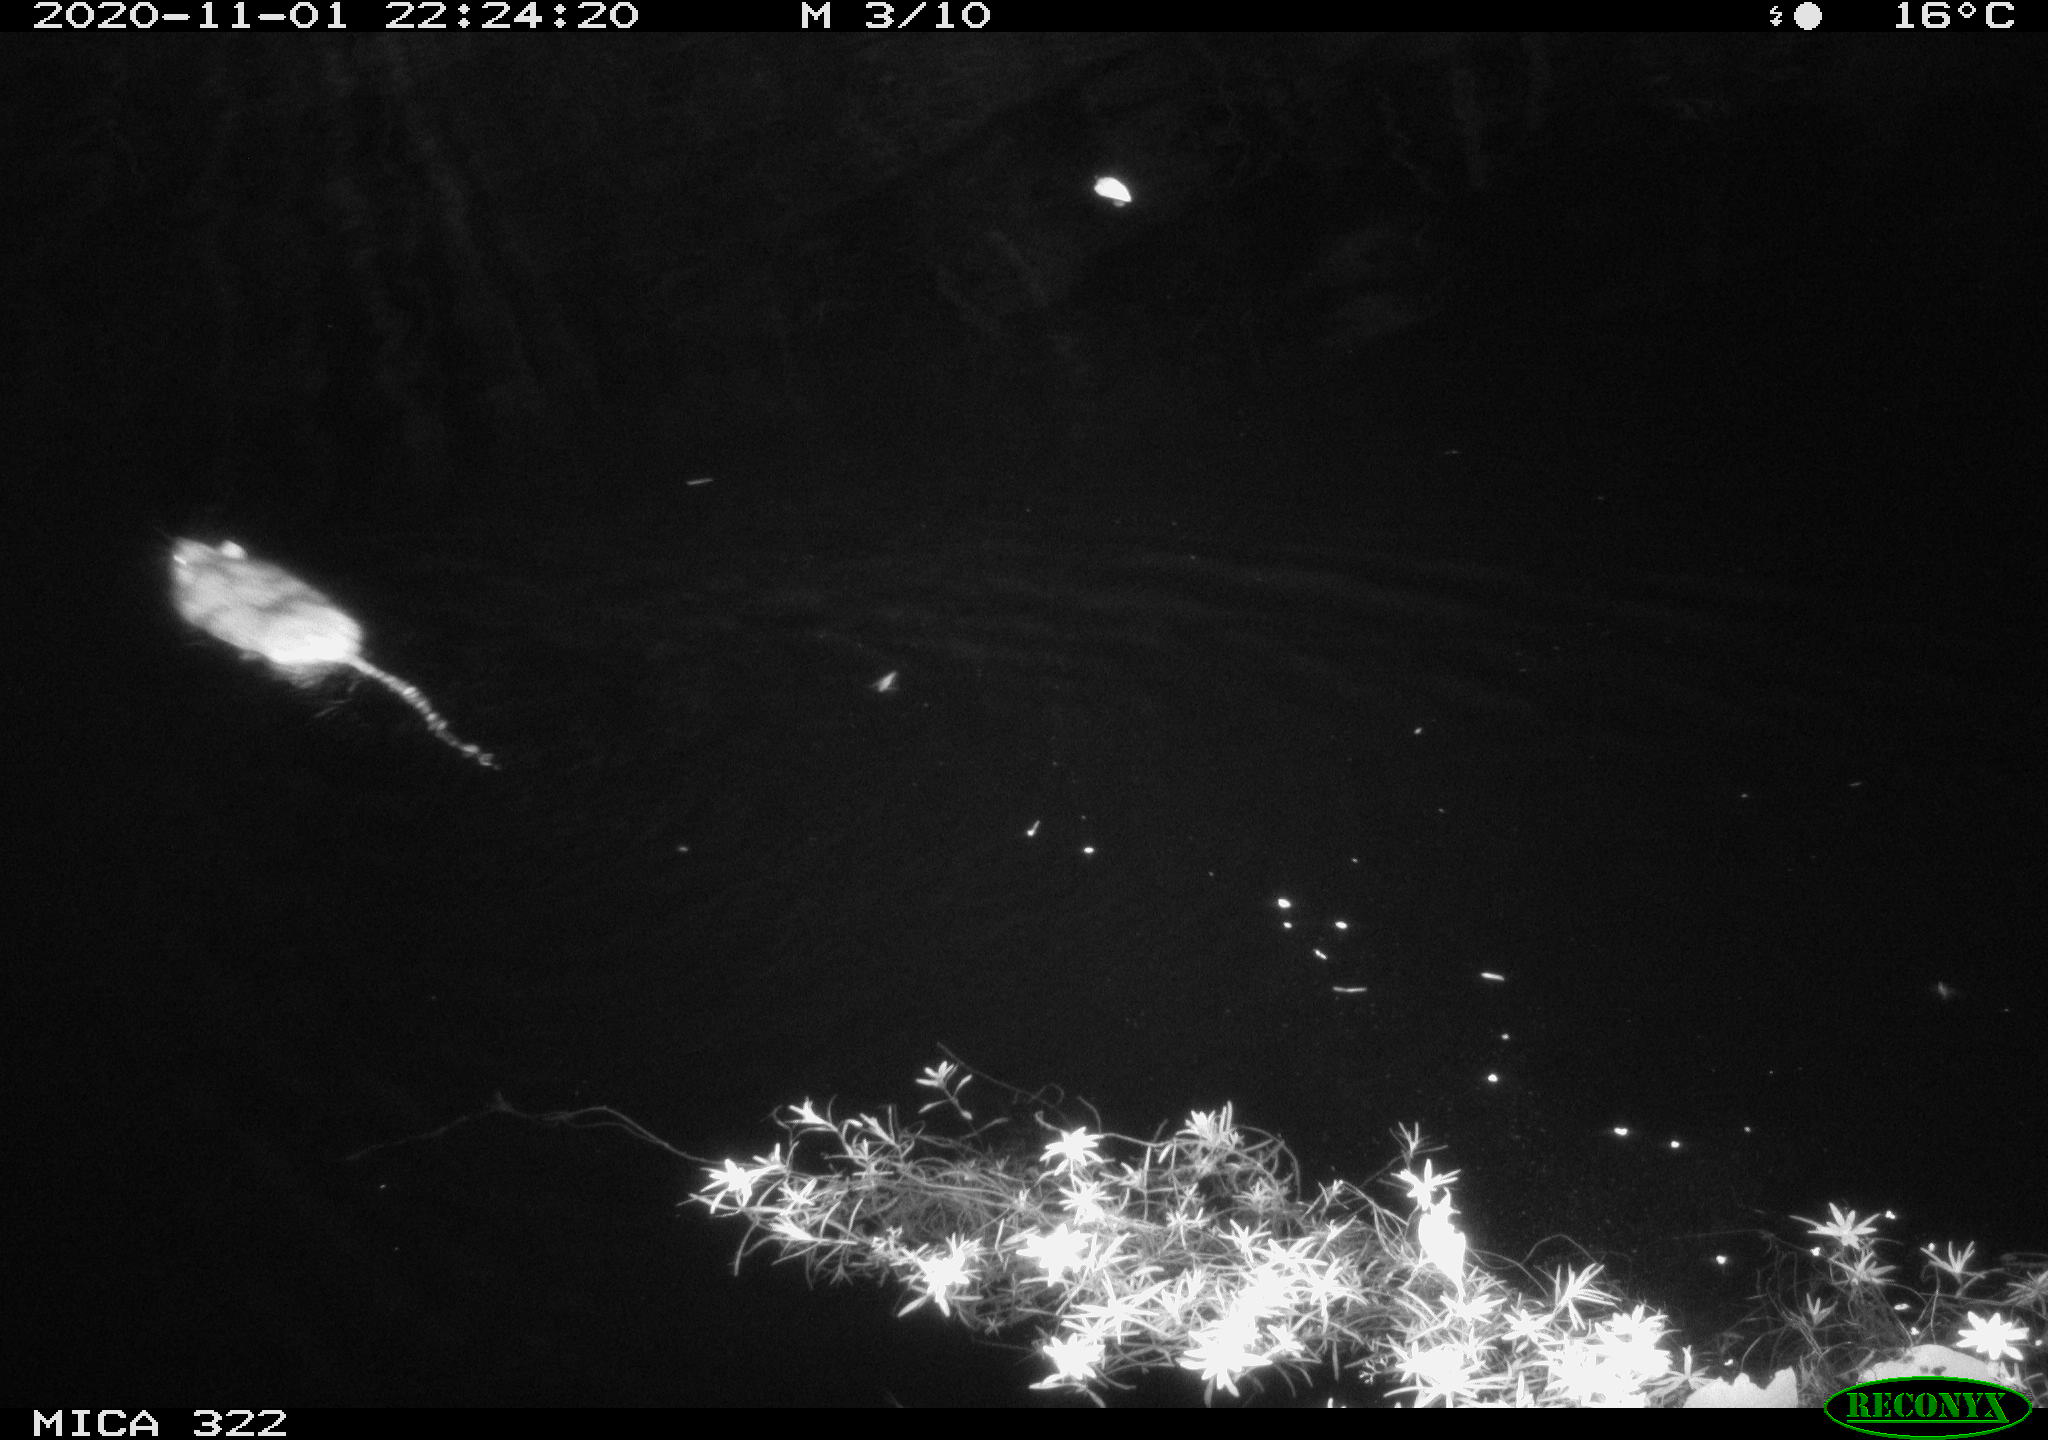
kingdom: Animalia
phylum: Chordata
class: Mammalia
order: Rodentia
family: Muridae
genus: Rattus
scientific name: Rattus norvegicus
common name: Brown rat
